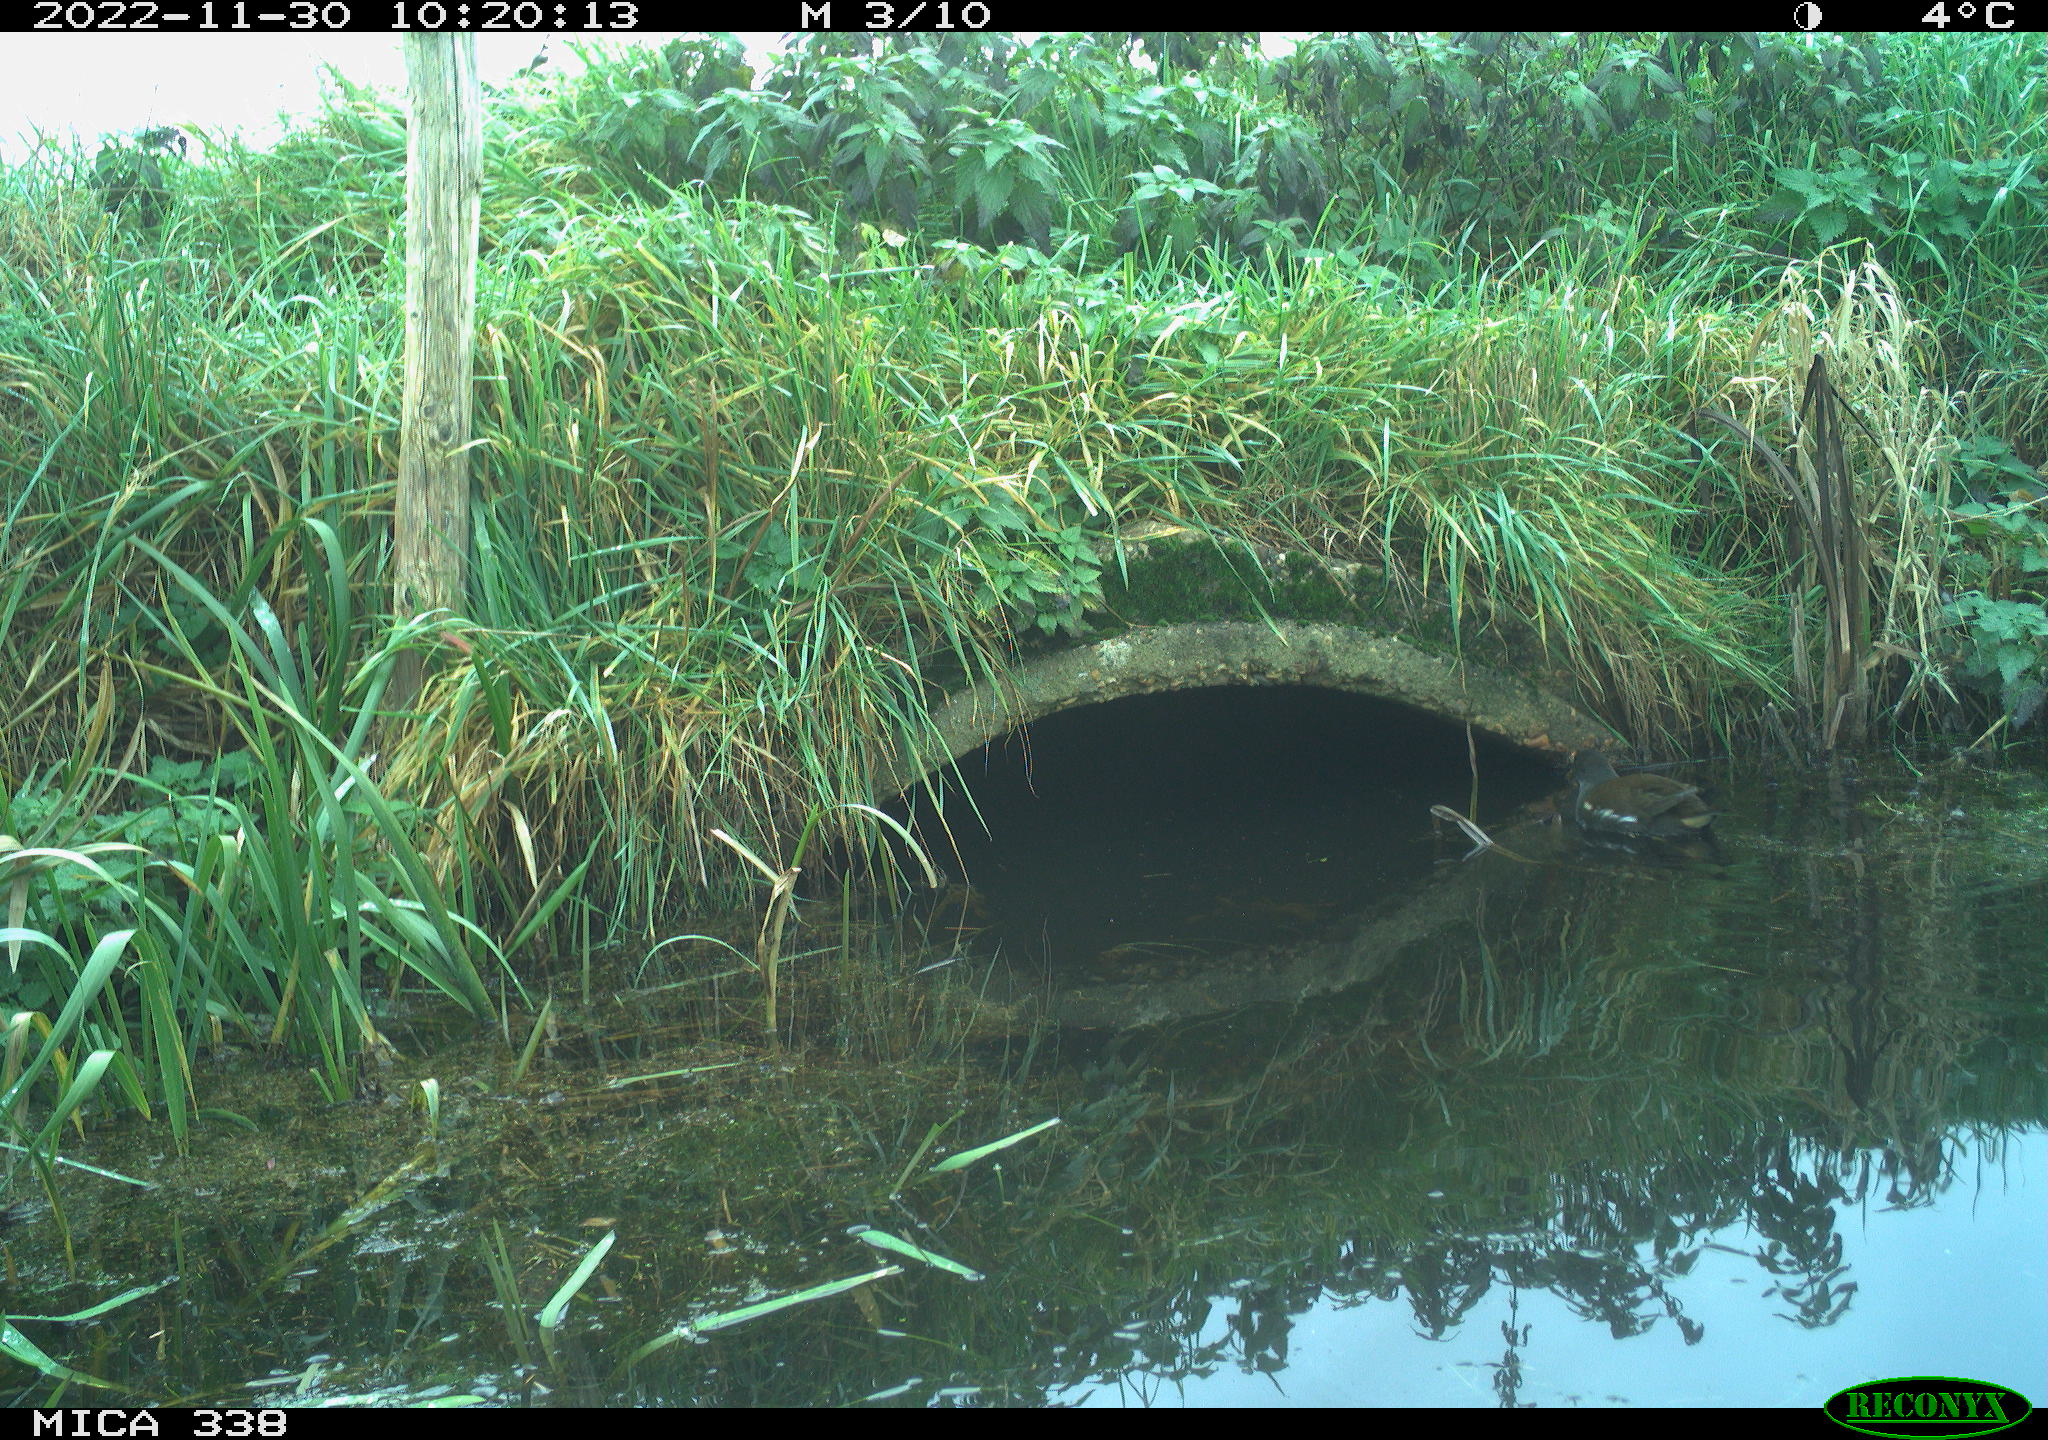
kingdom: Animalia
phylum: Chordata
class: Aves
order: Gruiformes
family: Rallidae
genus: Gallinula
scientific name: Gallinula chloropus
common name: Common moorhen
